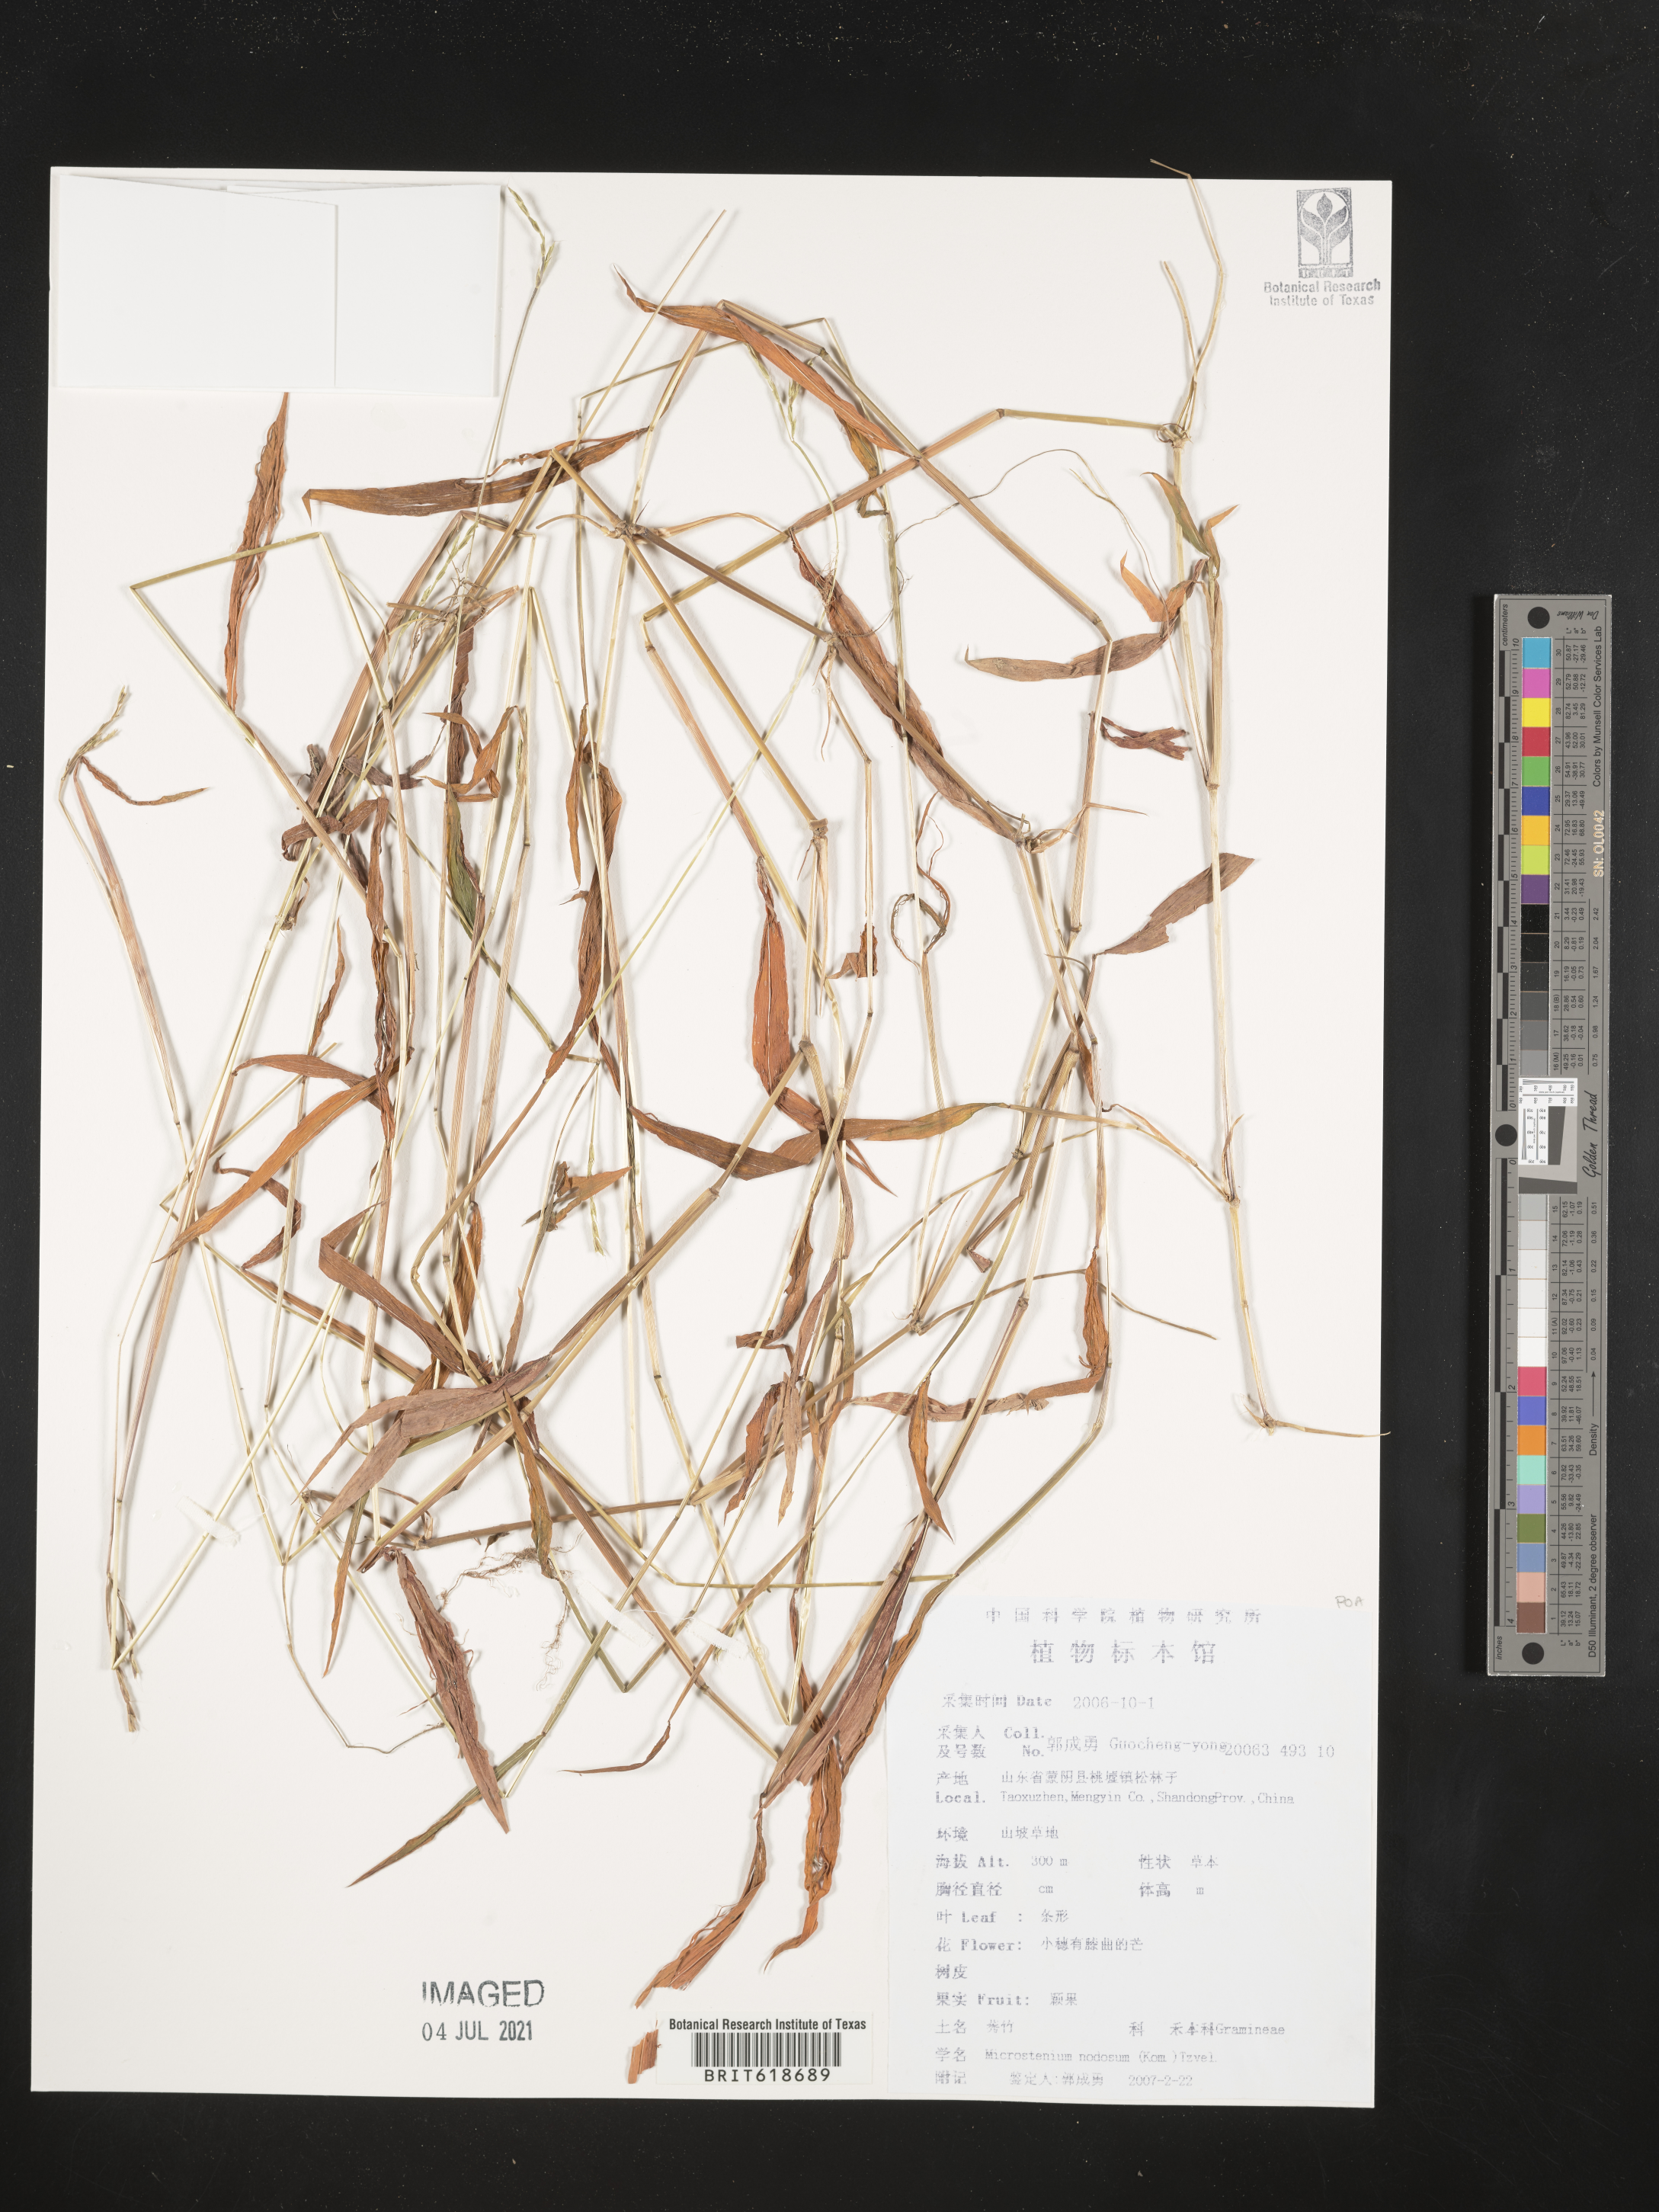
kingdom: Plantae
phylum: Tracheophyta
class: Liliopsida
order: Poales
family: Poaceae
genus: Microstegium
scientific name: Microstegium vimineum
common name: Japanese stiltgrass
